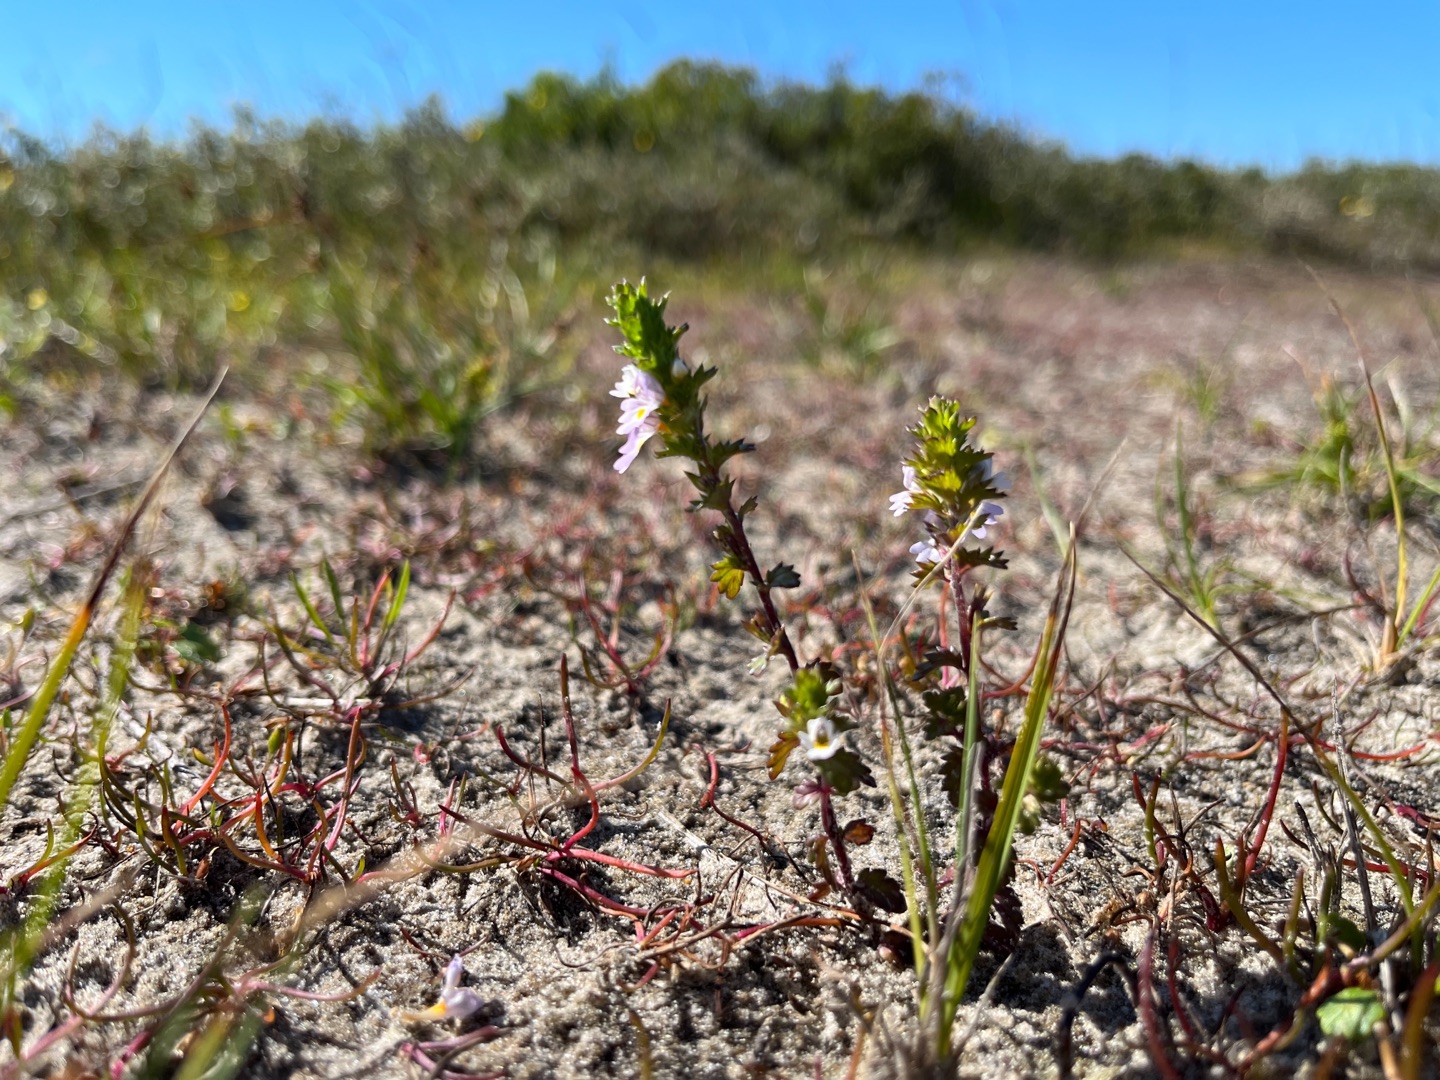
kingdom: Plantae
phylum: Tracheophyta
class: Magnoliopsida
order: Lamiales
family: Orobanchaceae
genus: Euphrasia
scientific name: Euphrasia arctica
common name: Nordisk øjentrøst
